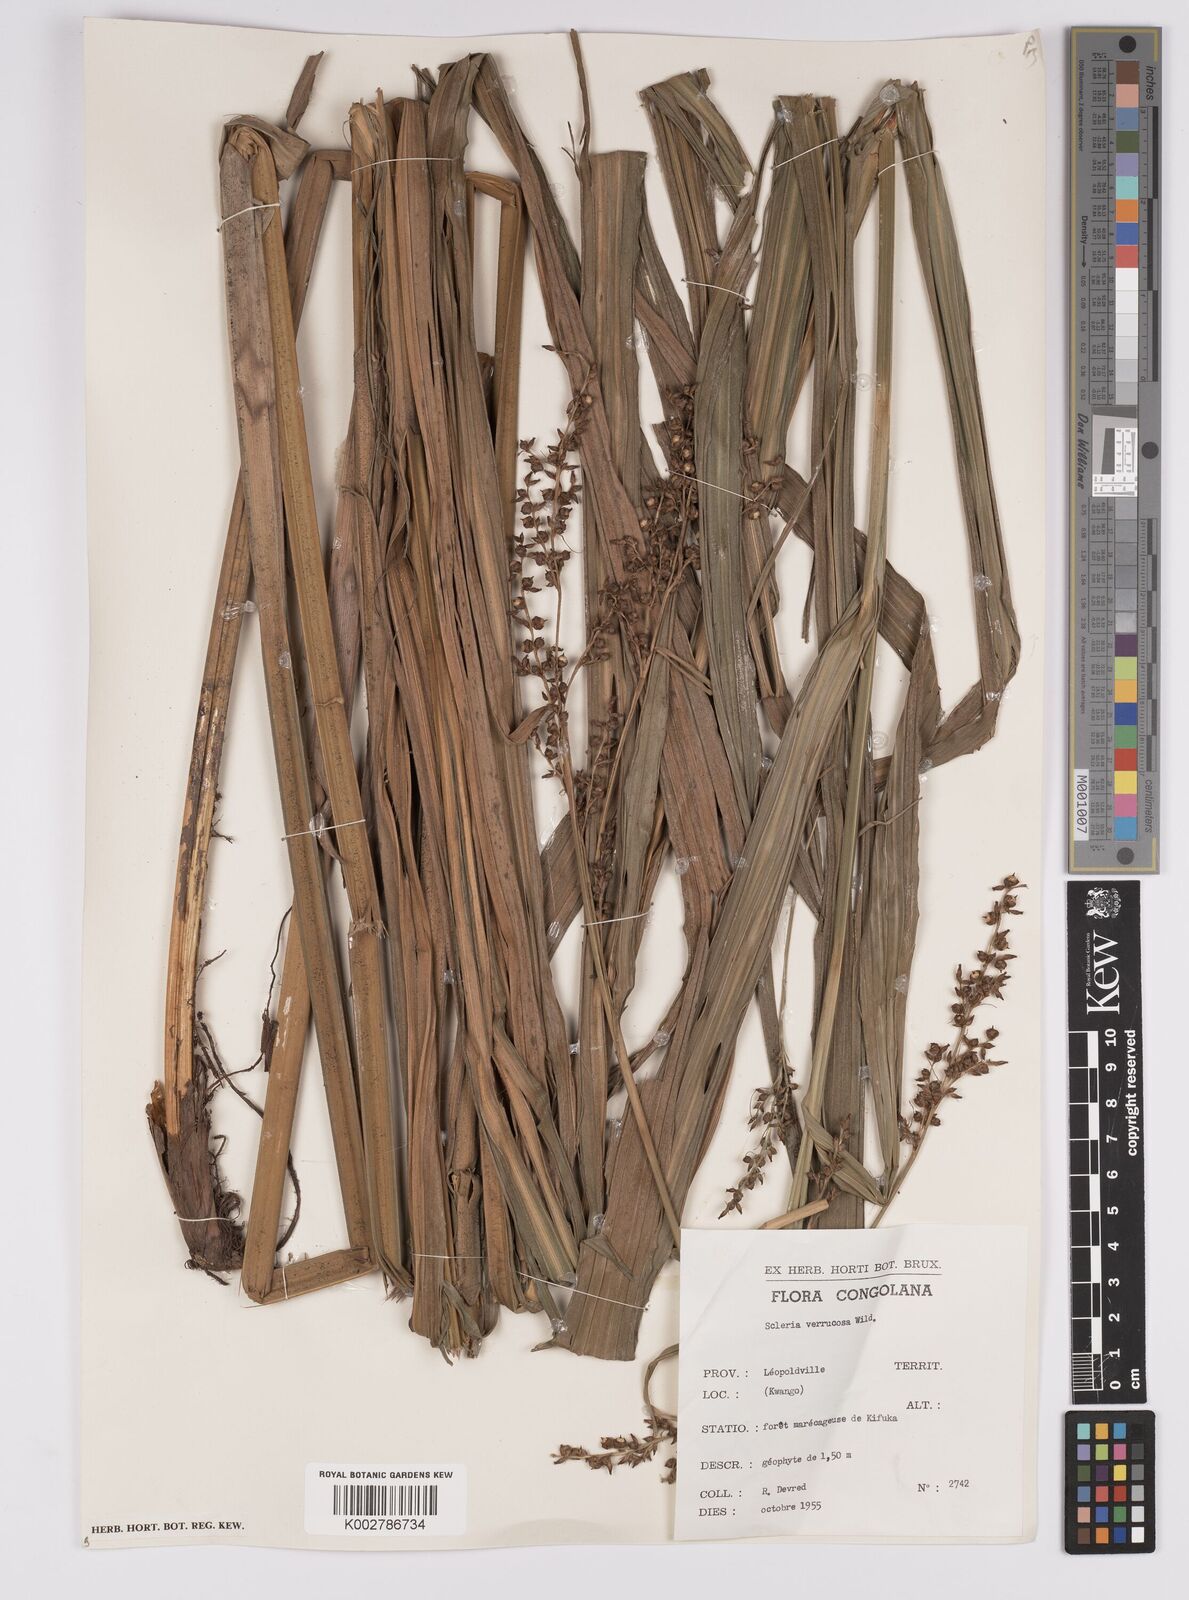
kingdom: Plantae
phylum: Tracheophyta
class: Liliopsida
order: Poales
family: Cyperaceae
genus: Scleria
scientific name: Scleria verrucosa
